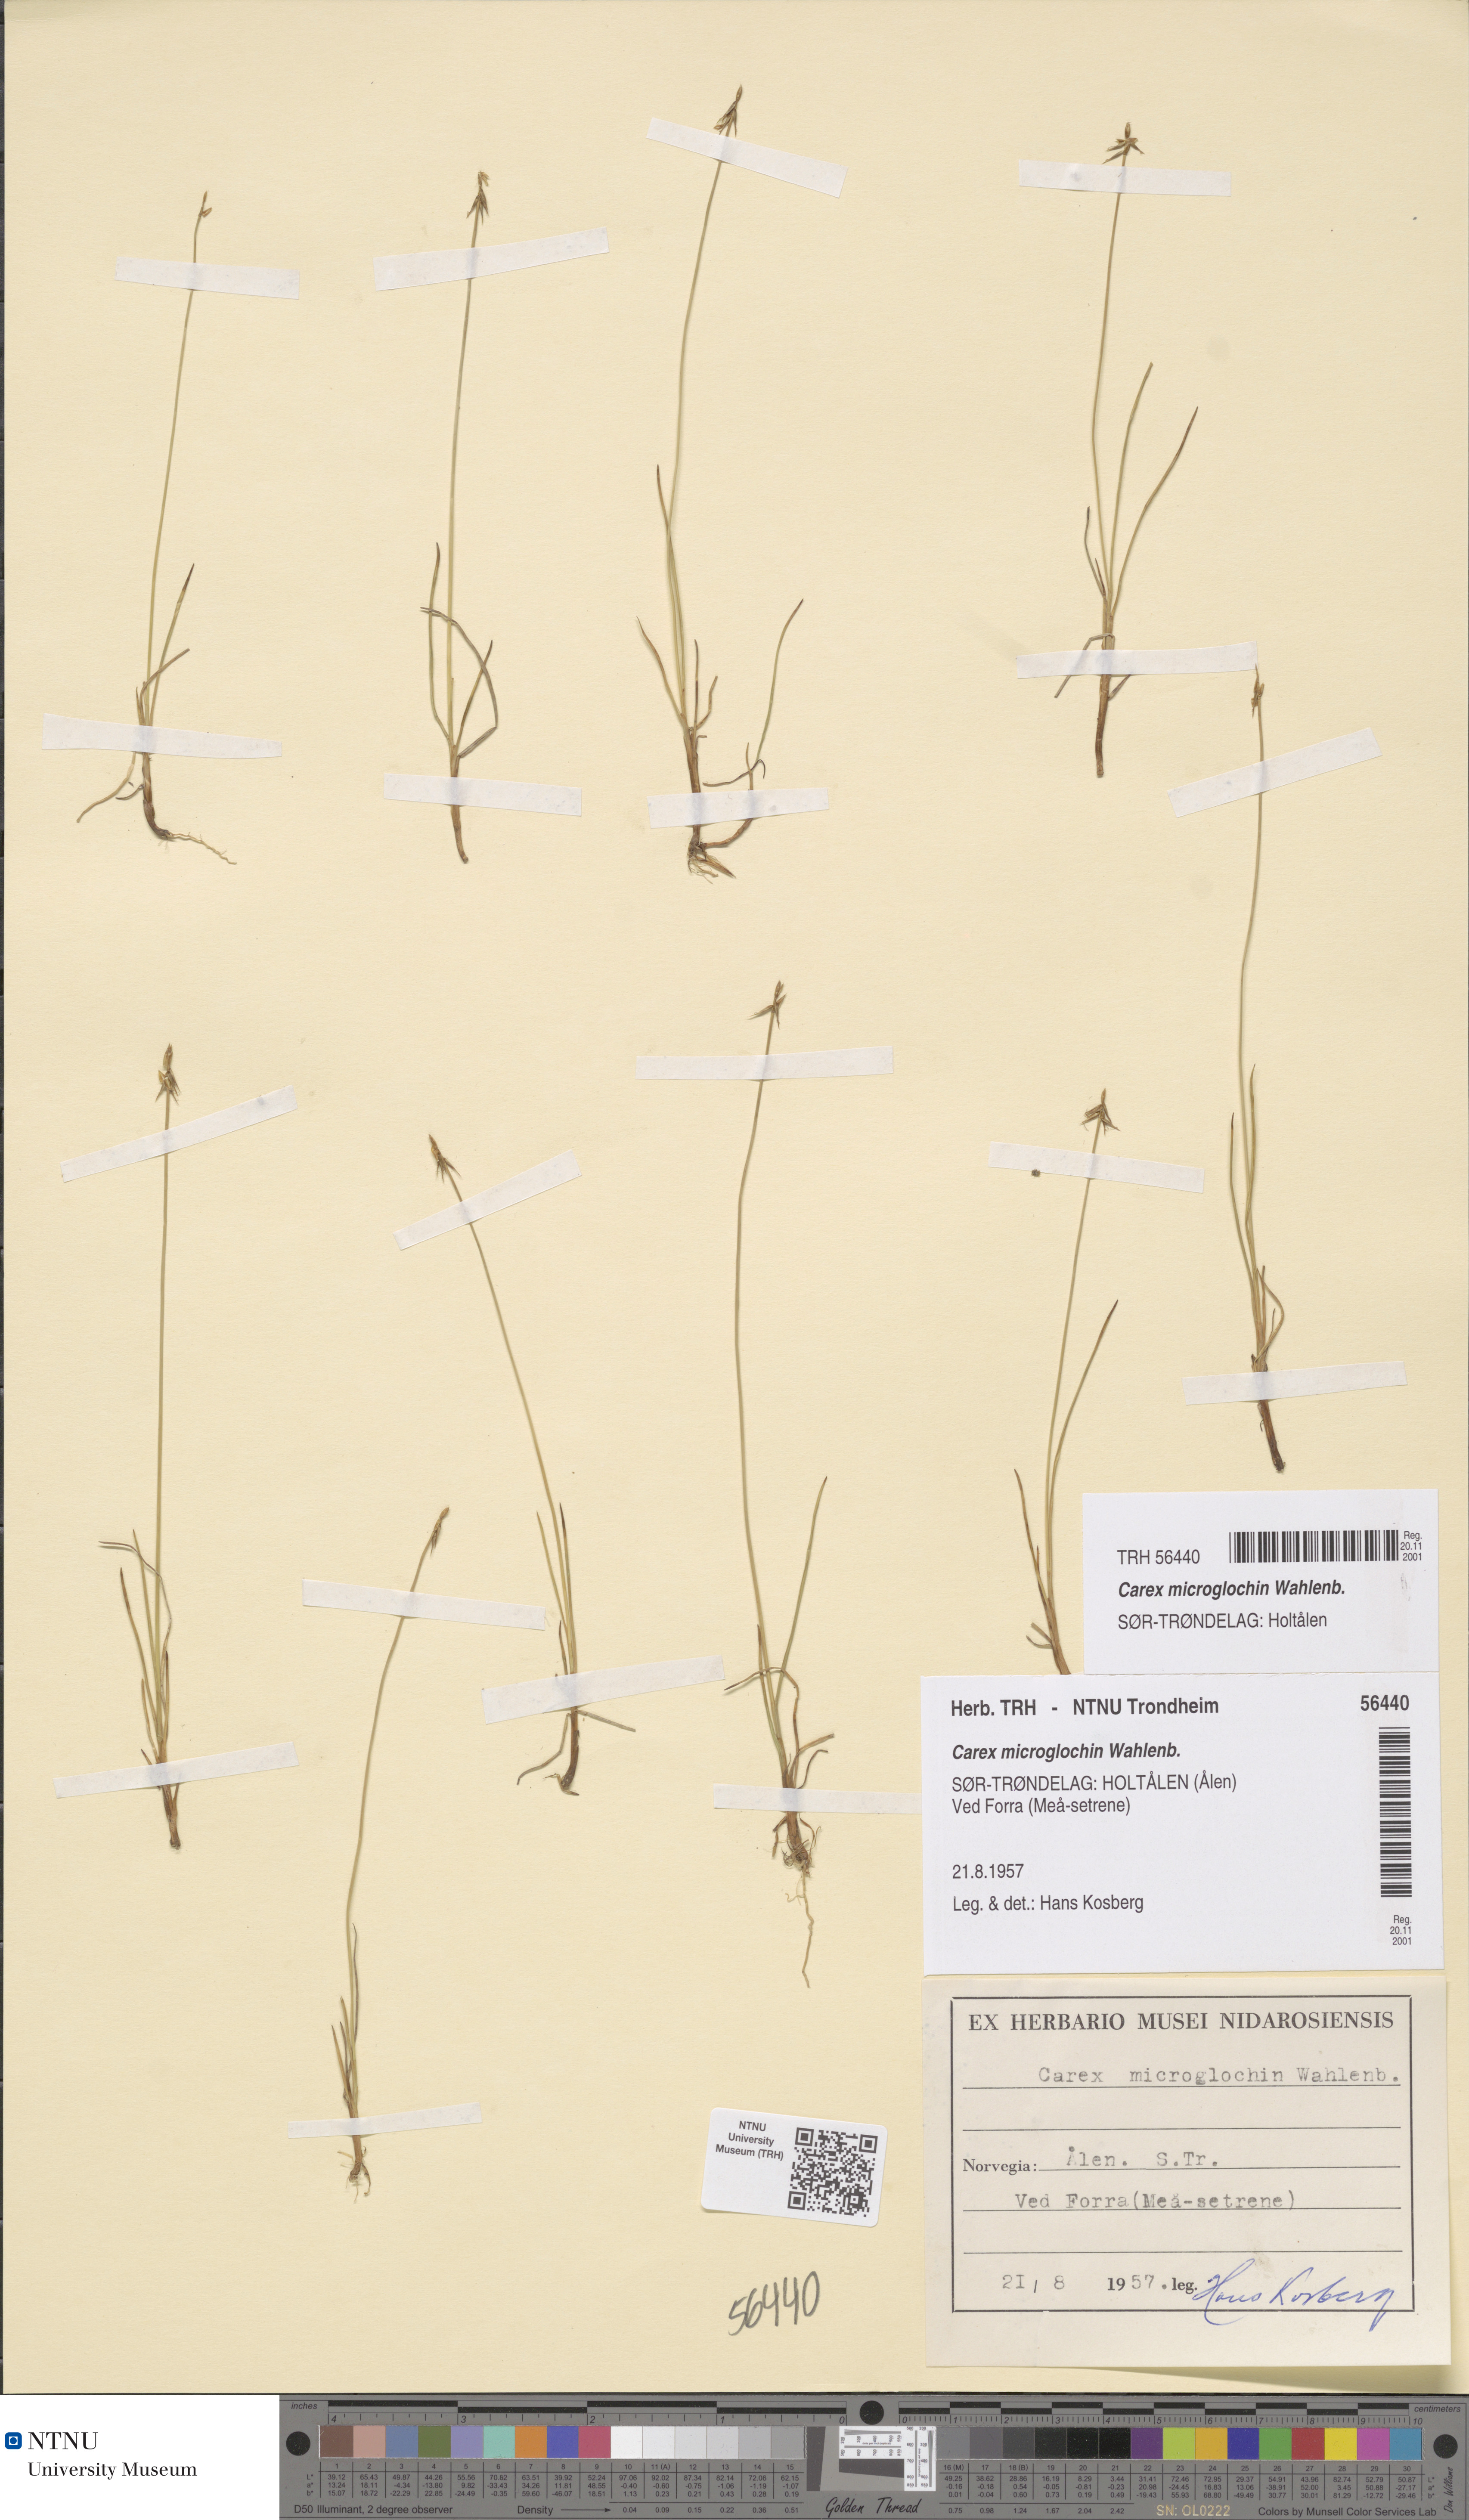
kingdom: Plantae
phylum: Tracheophyta
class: Liliopsida
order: Poales
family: Cyperaceae
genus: Carex
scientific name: Carex microglochin
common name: Bristle sedge
